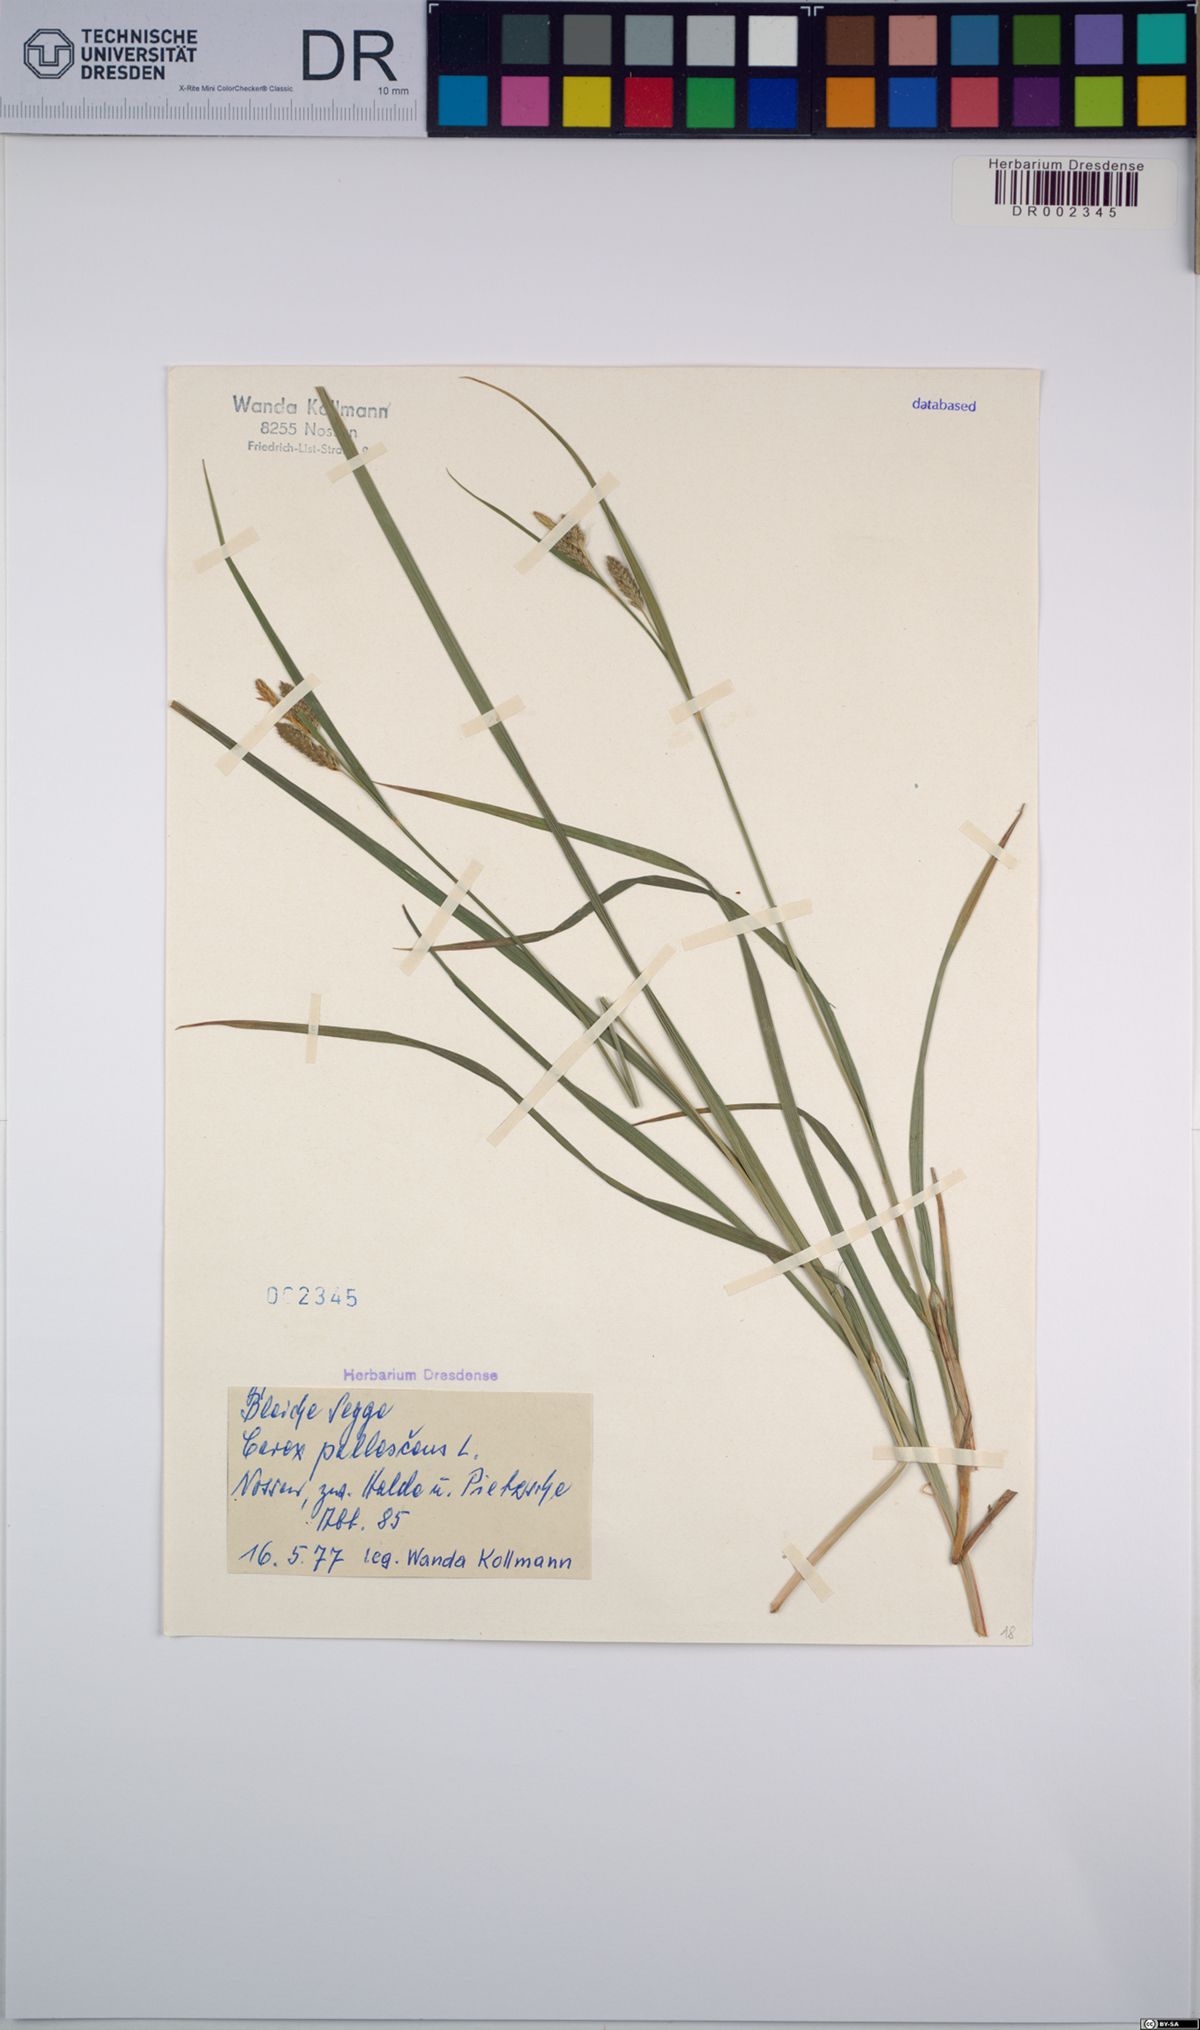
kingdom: Plantae
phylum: Tracheophyta
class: Liliopsida
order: Poales
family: Cyperaceae
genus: Carex
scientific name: Carex pallescens
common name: Pale sedge
